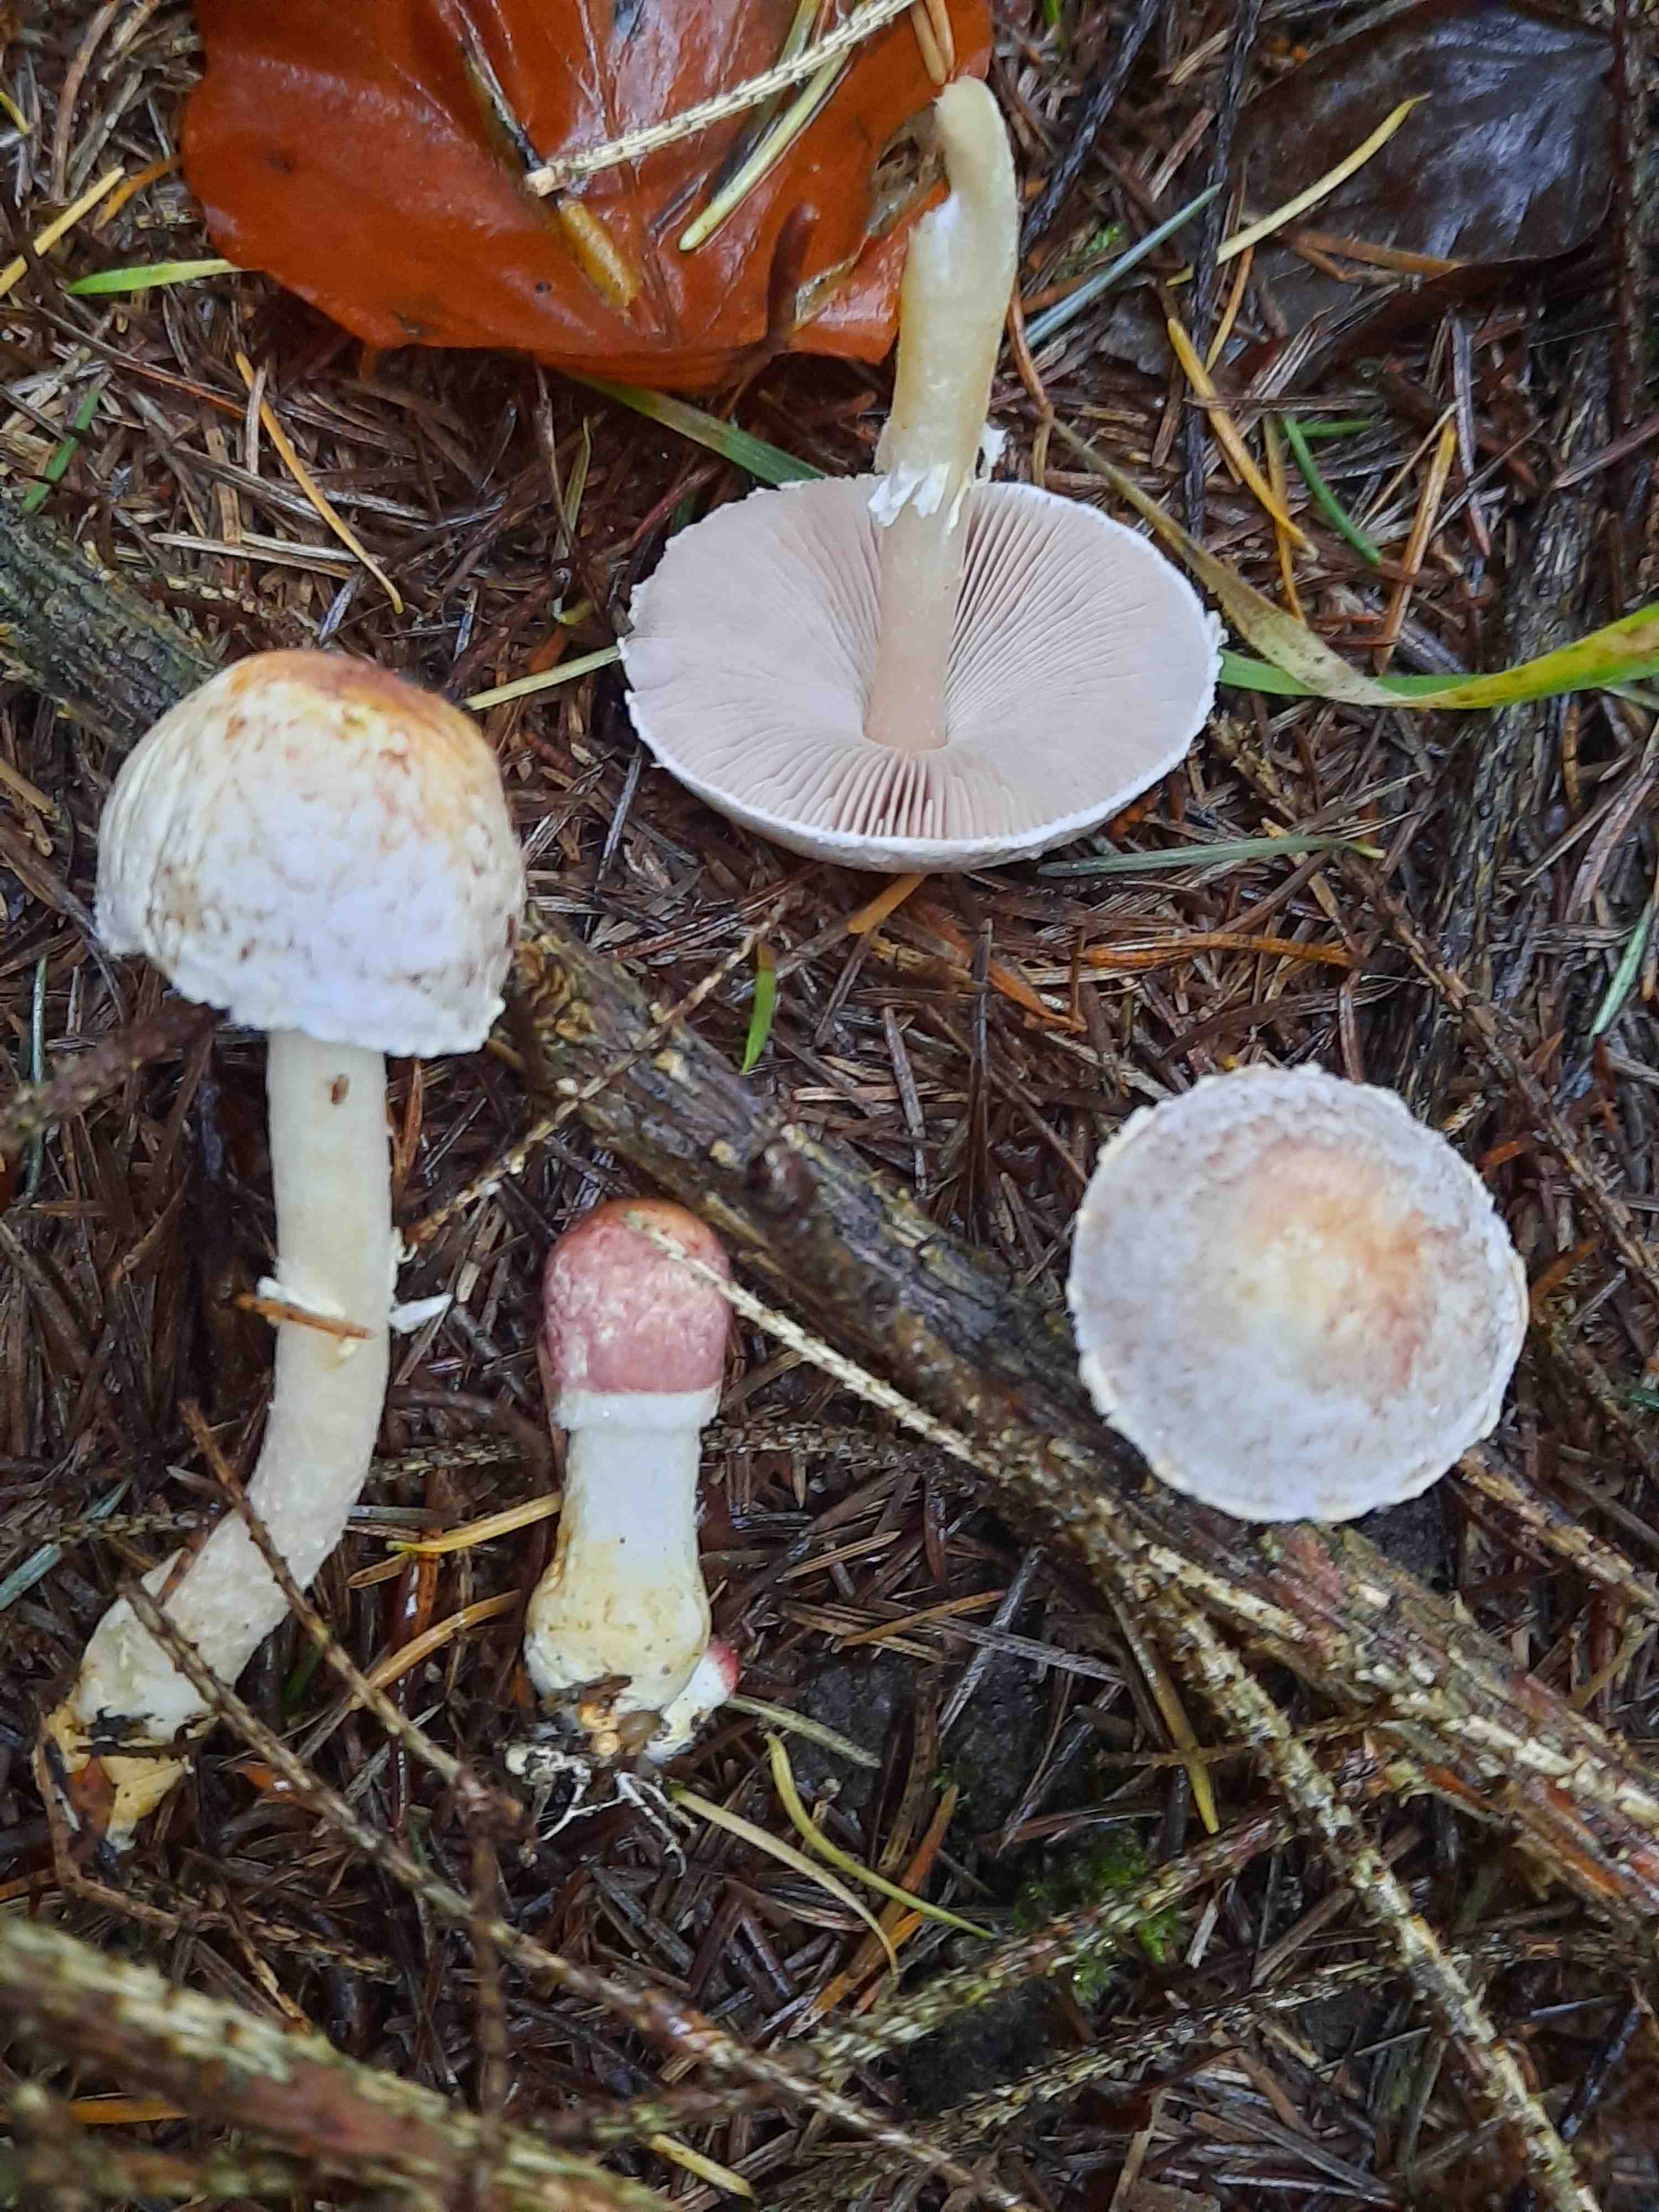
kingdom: Fungi
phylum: Basidiomycota
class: Agaricomycetes
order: Agaricales
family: Agaricaceae
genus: Agaricus
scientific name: Agaricus dulcidulus
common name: blegrød champignon
